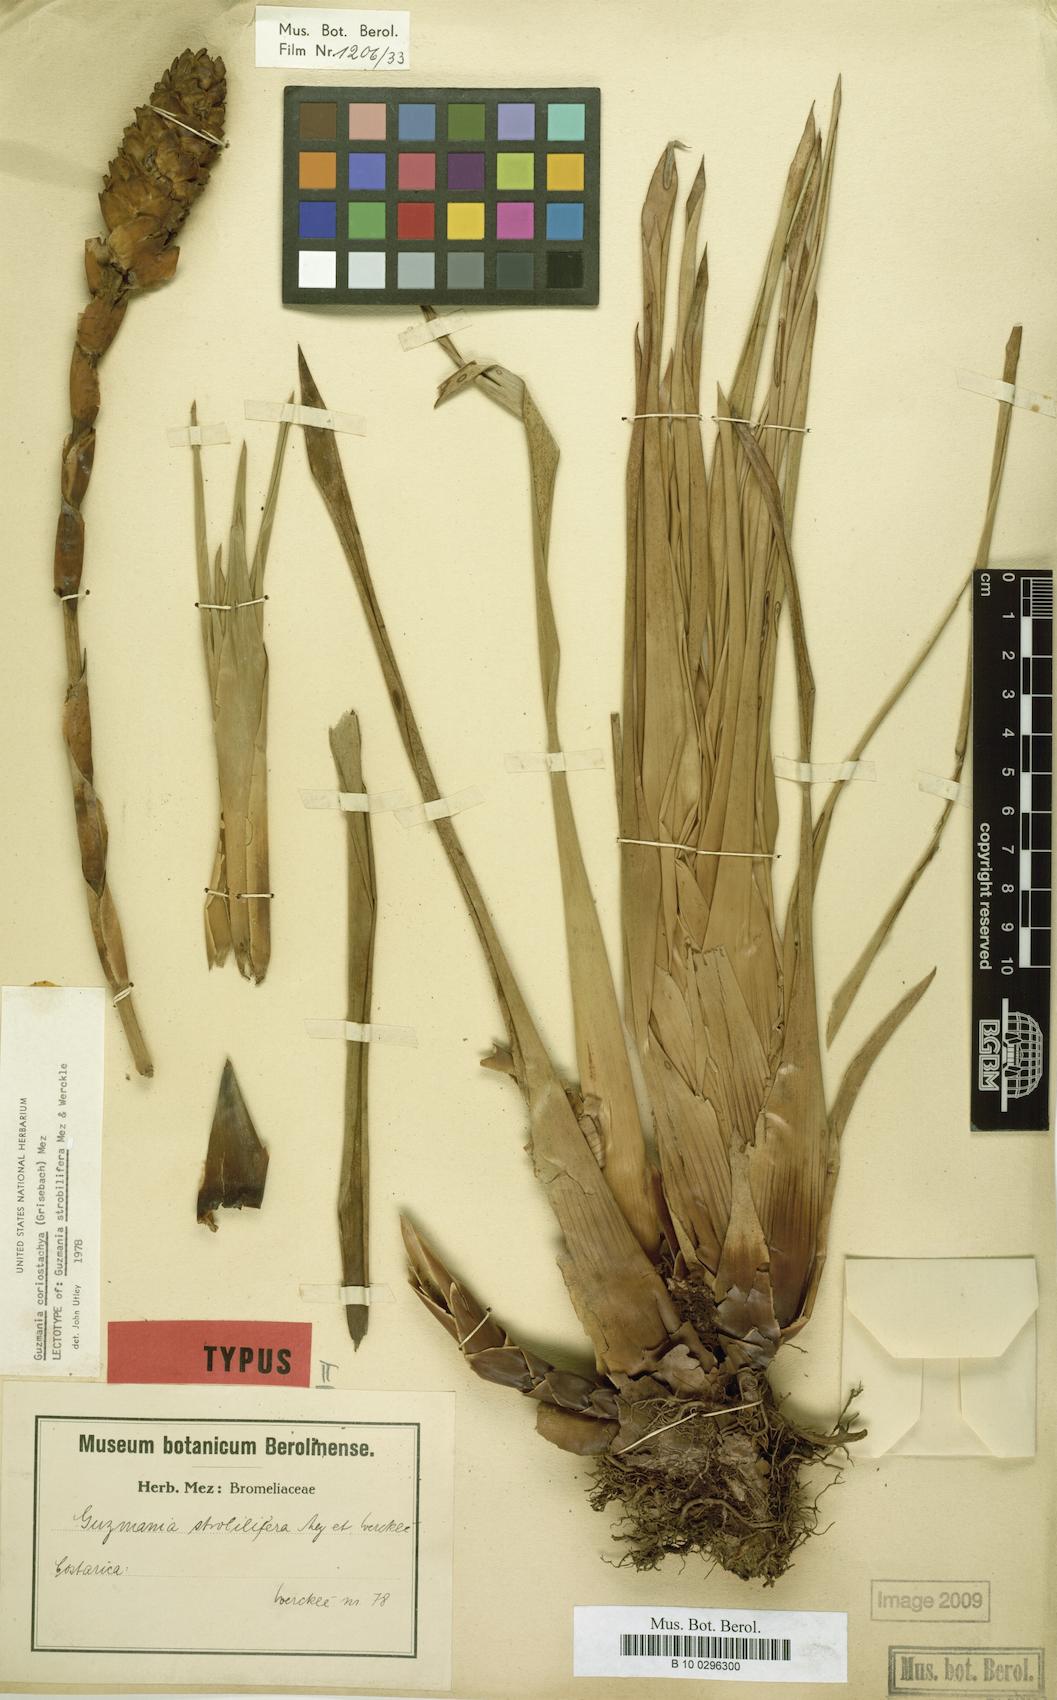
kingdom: Plantae
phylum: Tracheophyta
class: Liliopsida
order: Poales
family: Bromeliaceae
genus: Guzmania
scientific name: Guzmania coriostachya
